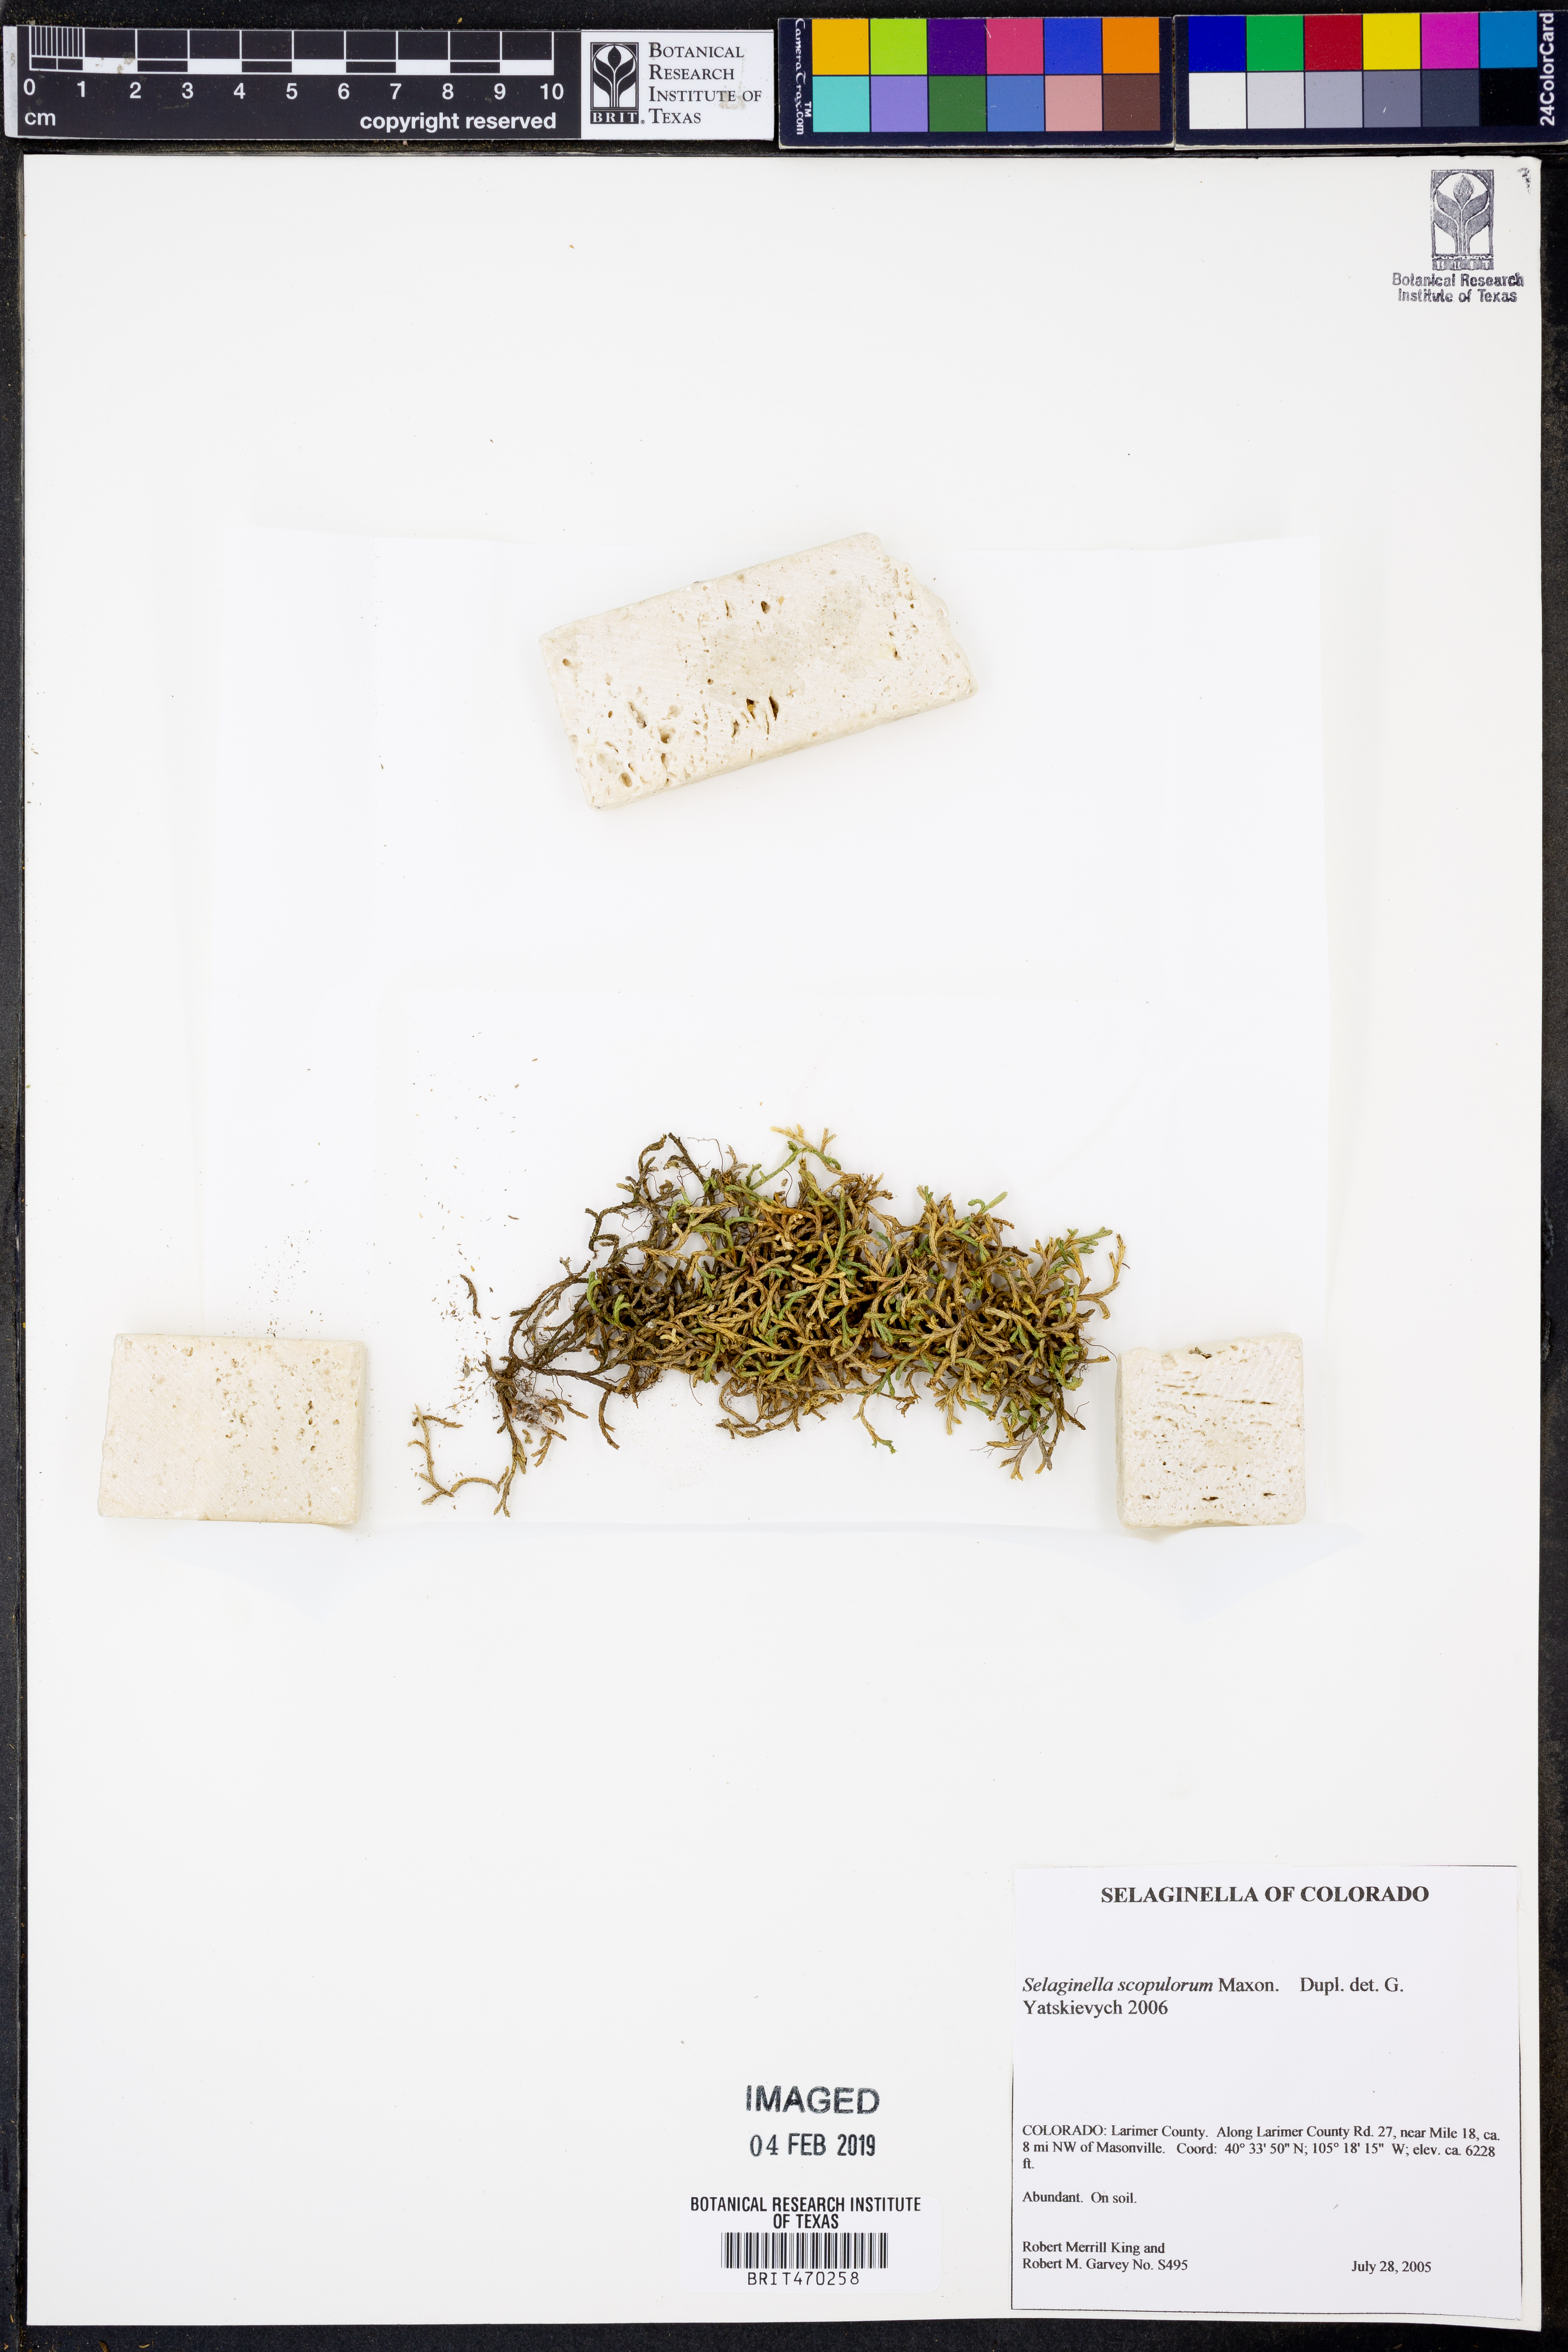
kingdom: Plantae
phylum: Tracheophyta
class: Lycopodiopsida
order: Selaginellales
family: Selaginellaceae
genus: Selaginella
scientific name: Selaginella densa
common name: Mountain spike-moss
